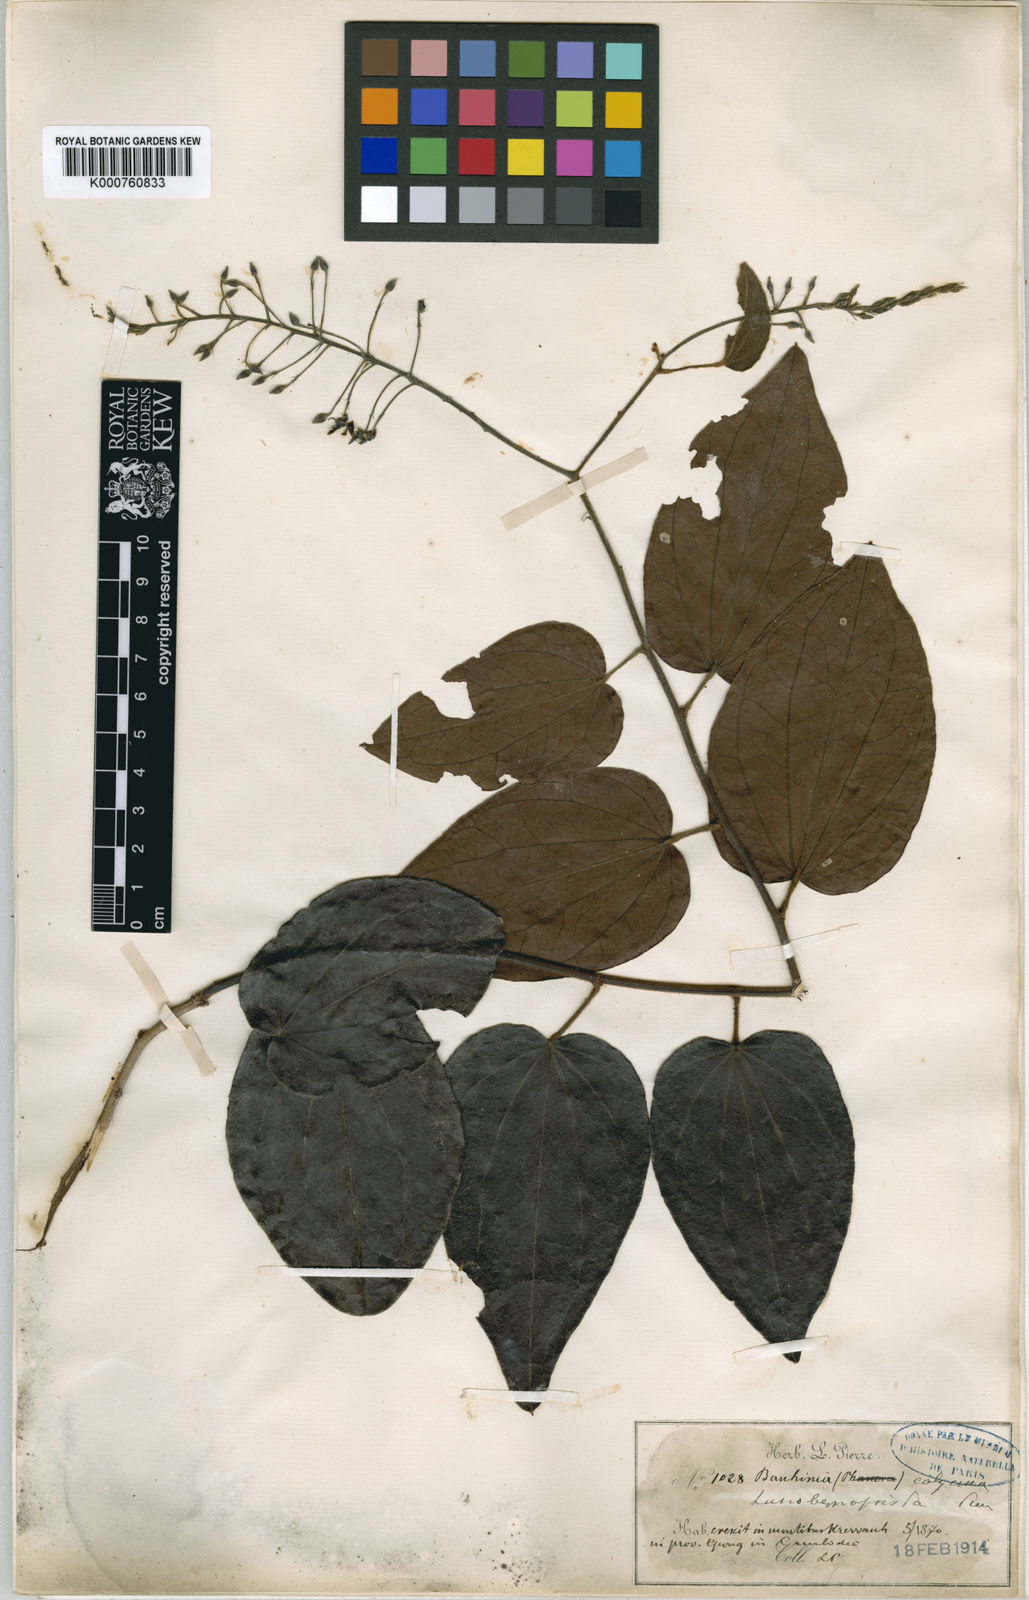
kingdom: Plantae
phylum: Tracheophyta
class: Magnoliopsida
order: Fabales
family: Fabaceae
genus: Bauhinia
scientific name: Bauhinia calycina
